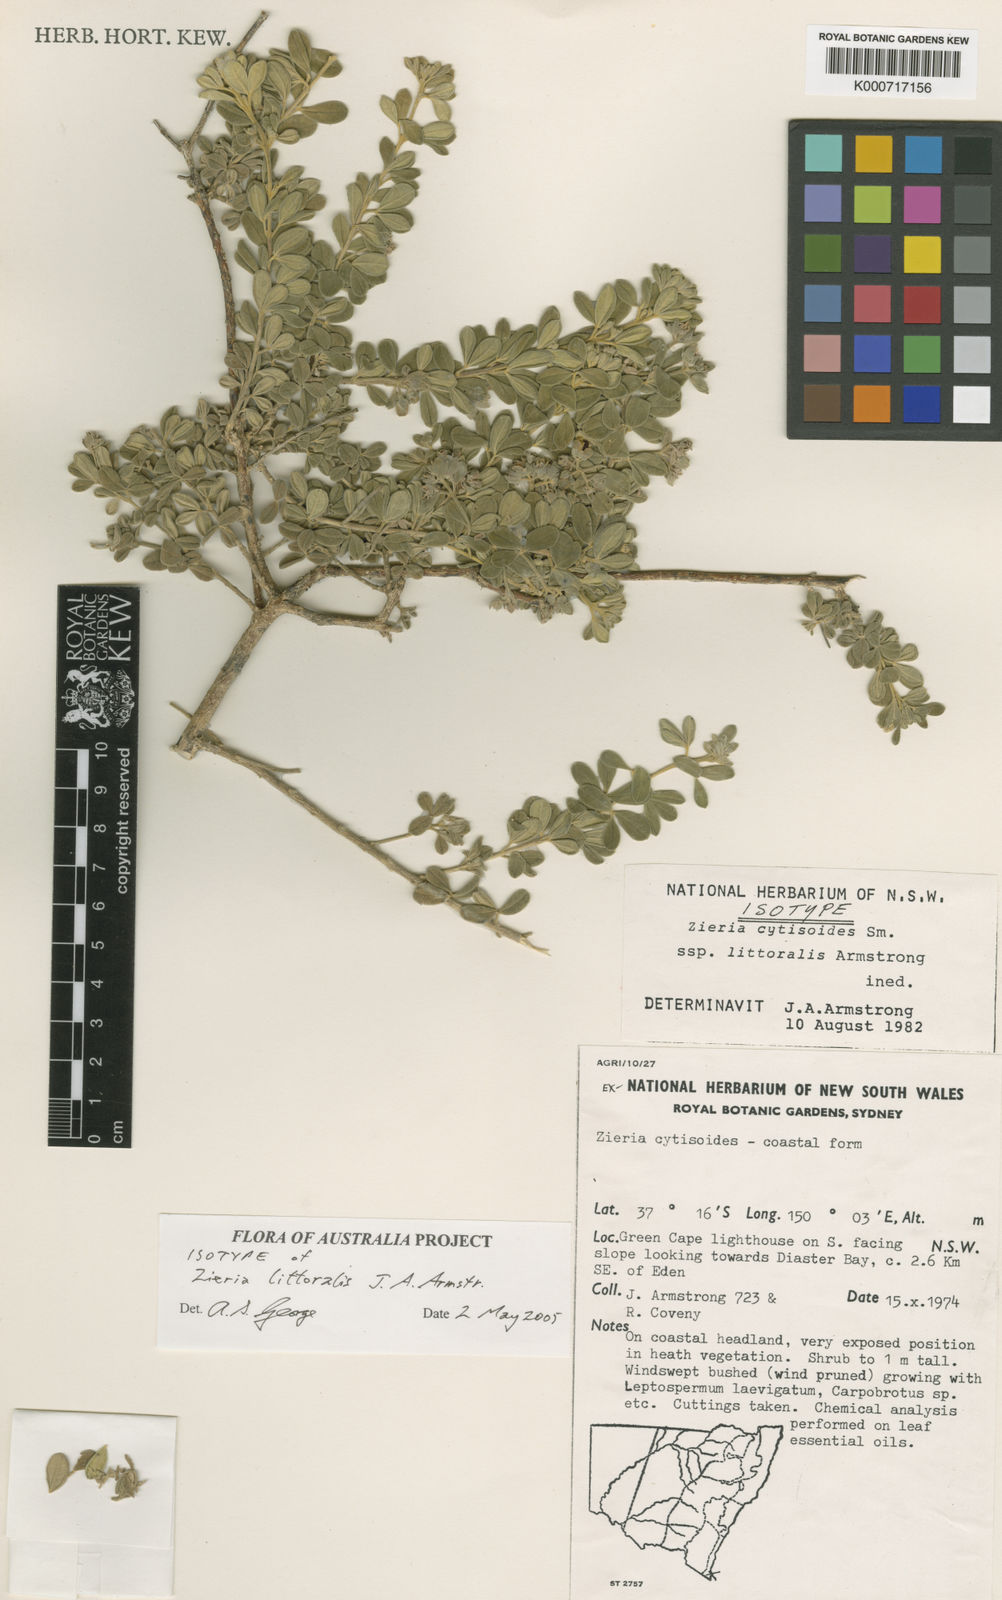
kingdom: Plantae
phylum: Tracheophyta
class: Magnoliopsida
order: Sapindales
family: Rutaceae
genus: Zieria
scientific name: Zieria littoralis
